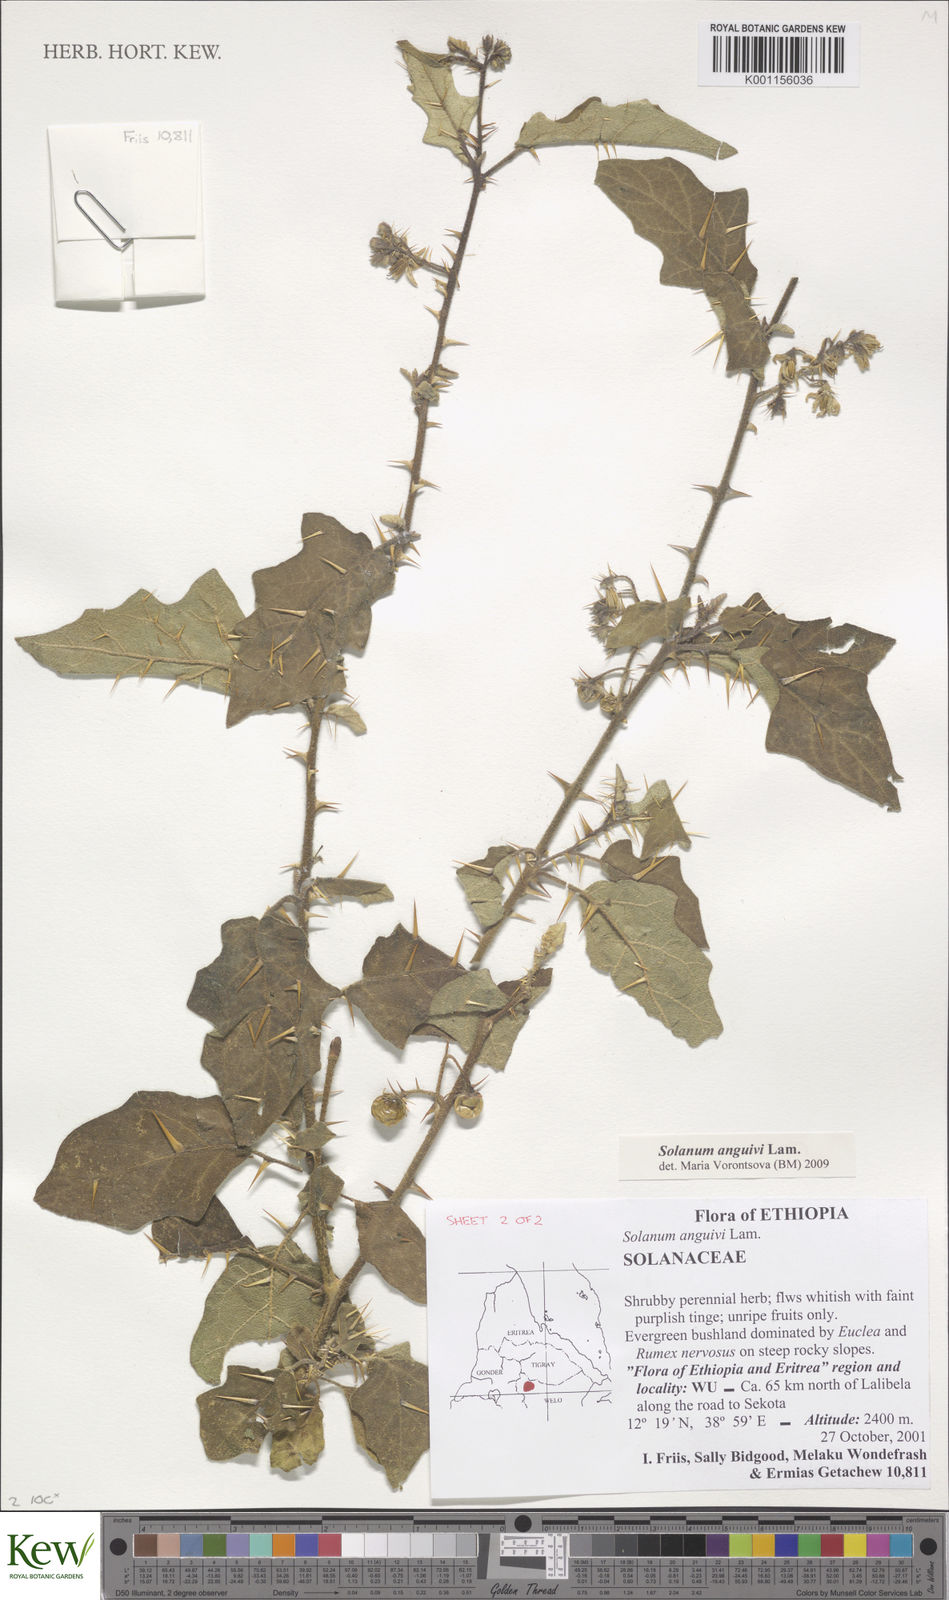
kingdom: Plantae
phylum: Tracheophyta
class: Magnoliopsida
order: Solanales
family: Solanaceae
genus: Solanum
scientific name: Solanum anguivi
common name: Forest bitterberry
